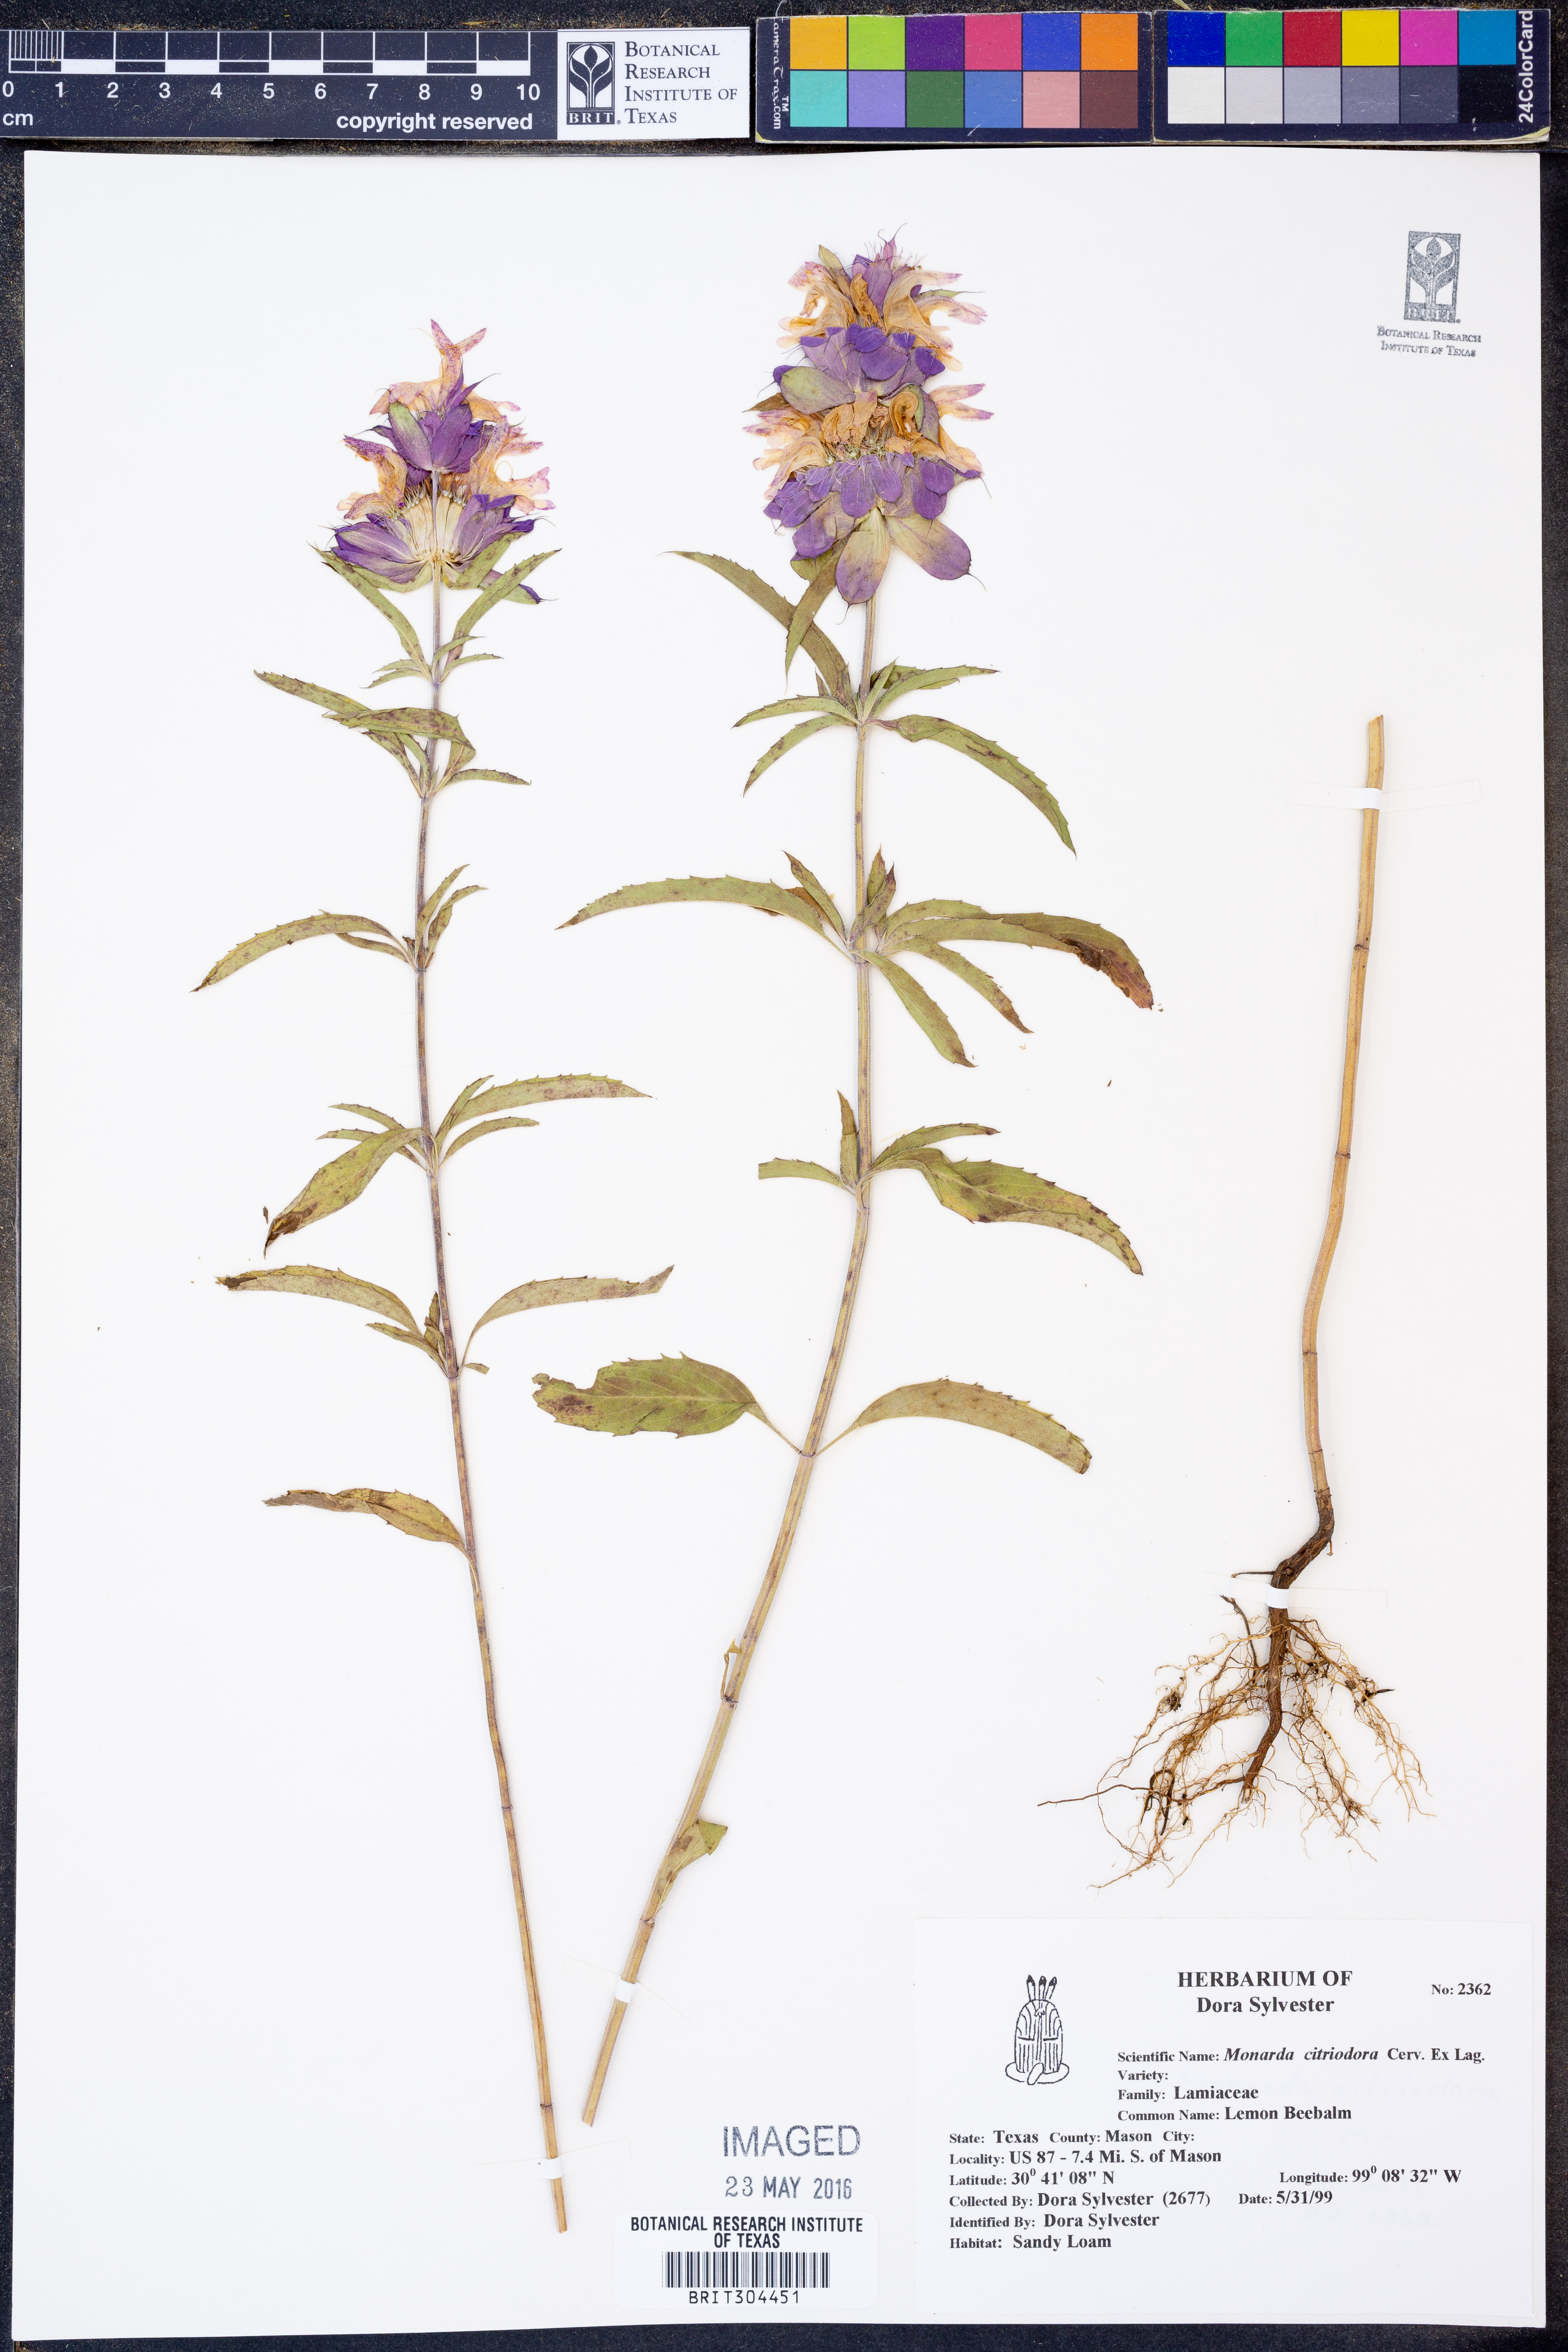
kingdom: Plantae
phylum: Tracheophyta
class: Magnoliopsida
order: Lamiales
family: Lamiaceae
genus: Monarda
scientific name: Monarda citriodora
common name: Lemon beebalm
